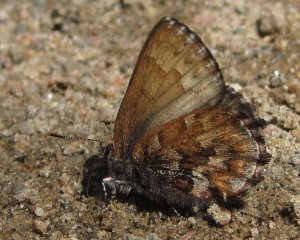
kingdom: Animalia
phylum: Arthropoda
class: Insecta
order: Lepidoptera
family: Lycaenidae
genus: Incisalia
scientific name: Incisalia niphon
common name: Eastern Pine Elfin
